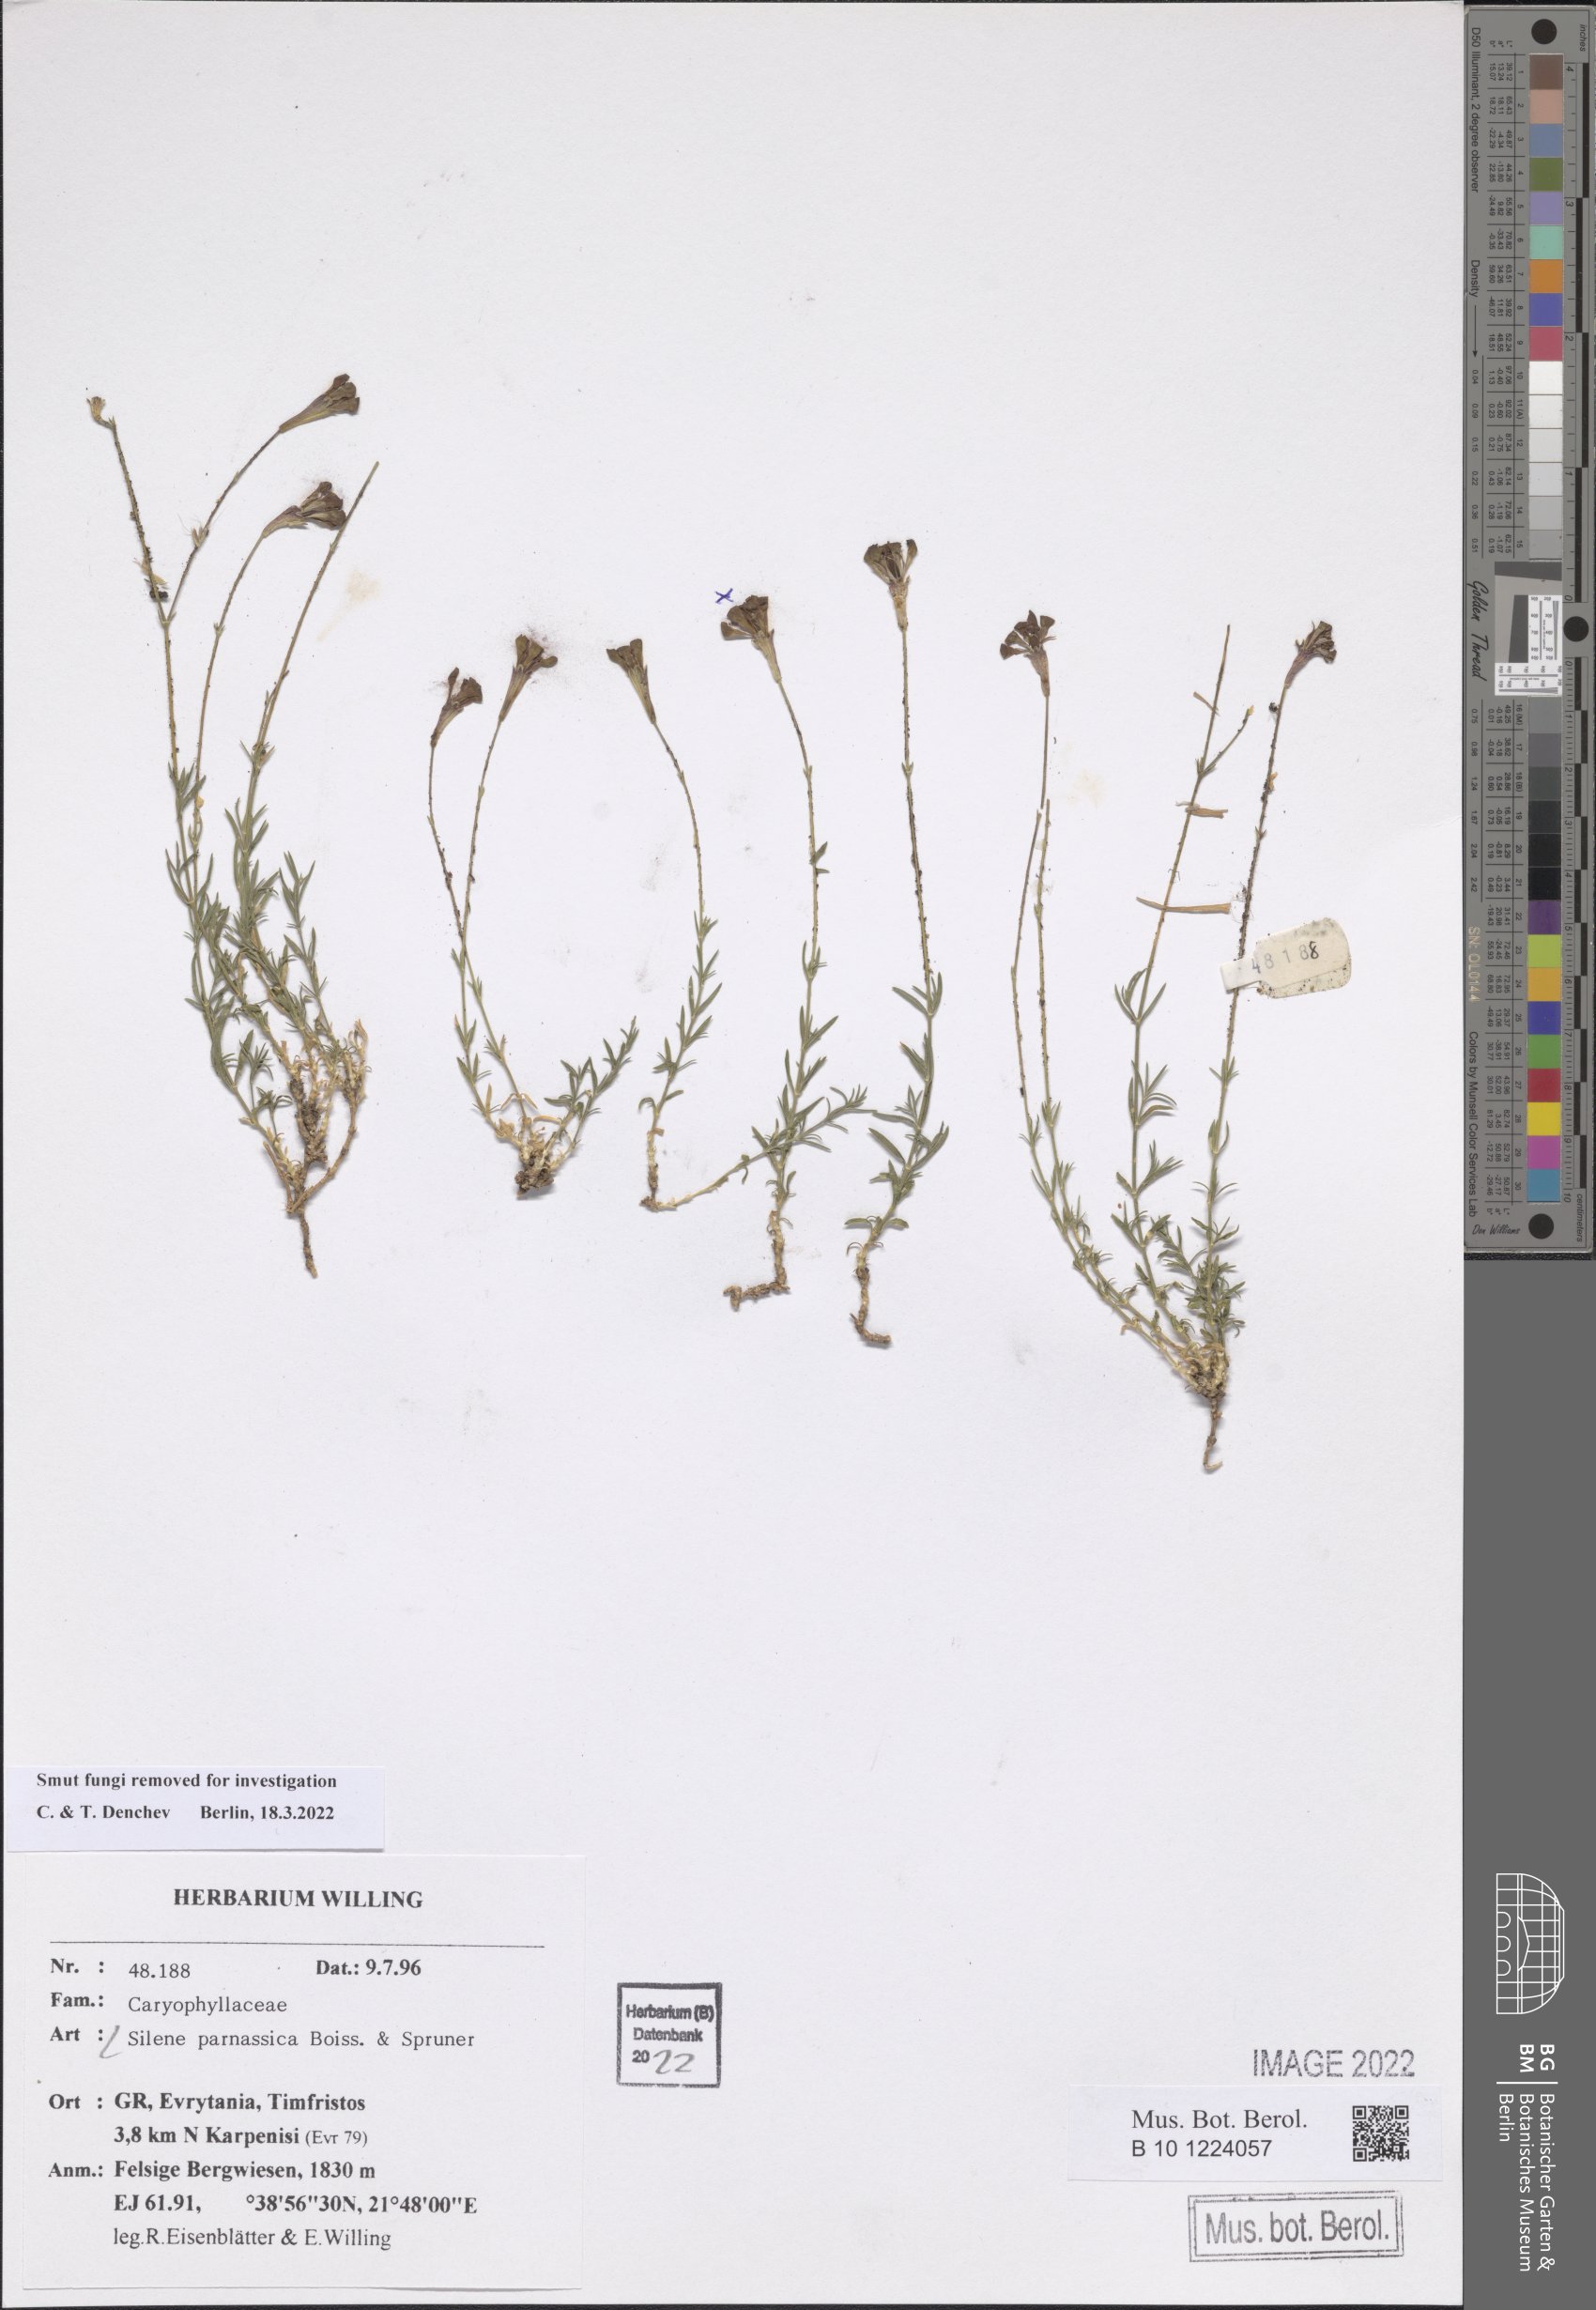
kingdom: Plantae
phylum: Tracheophyta
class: Magnoliopsida
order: Caryophyllales
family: Caryophyllaceae
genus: Silene
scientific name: Silene parnassica
